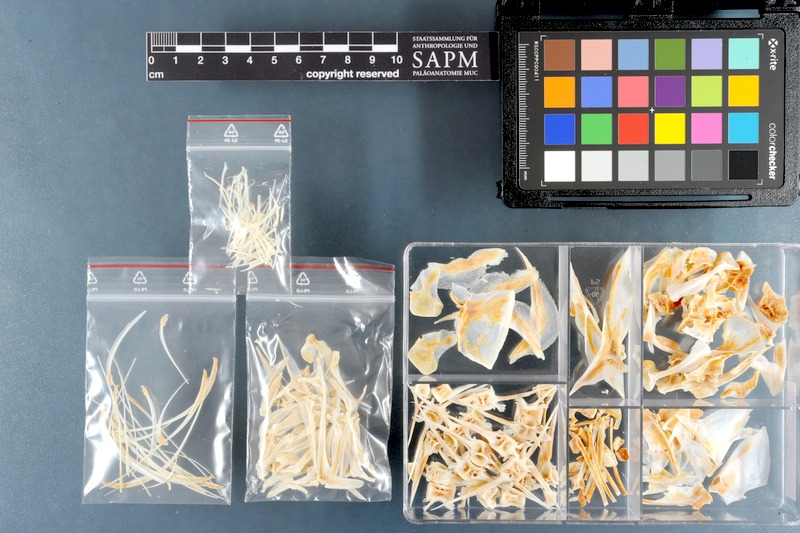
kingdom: Animalia
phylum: Chordata
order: Perciformes
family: Carangidae
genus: Gnathanodon
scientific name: Gnathanodon speciosus
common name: Golden toothless trevally
